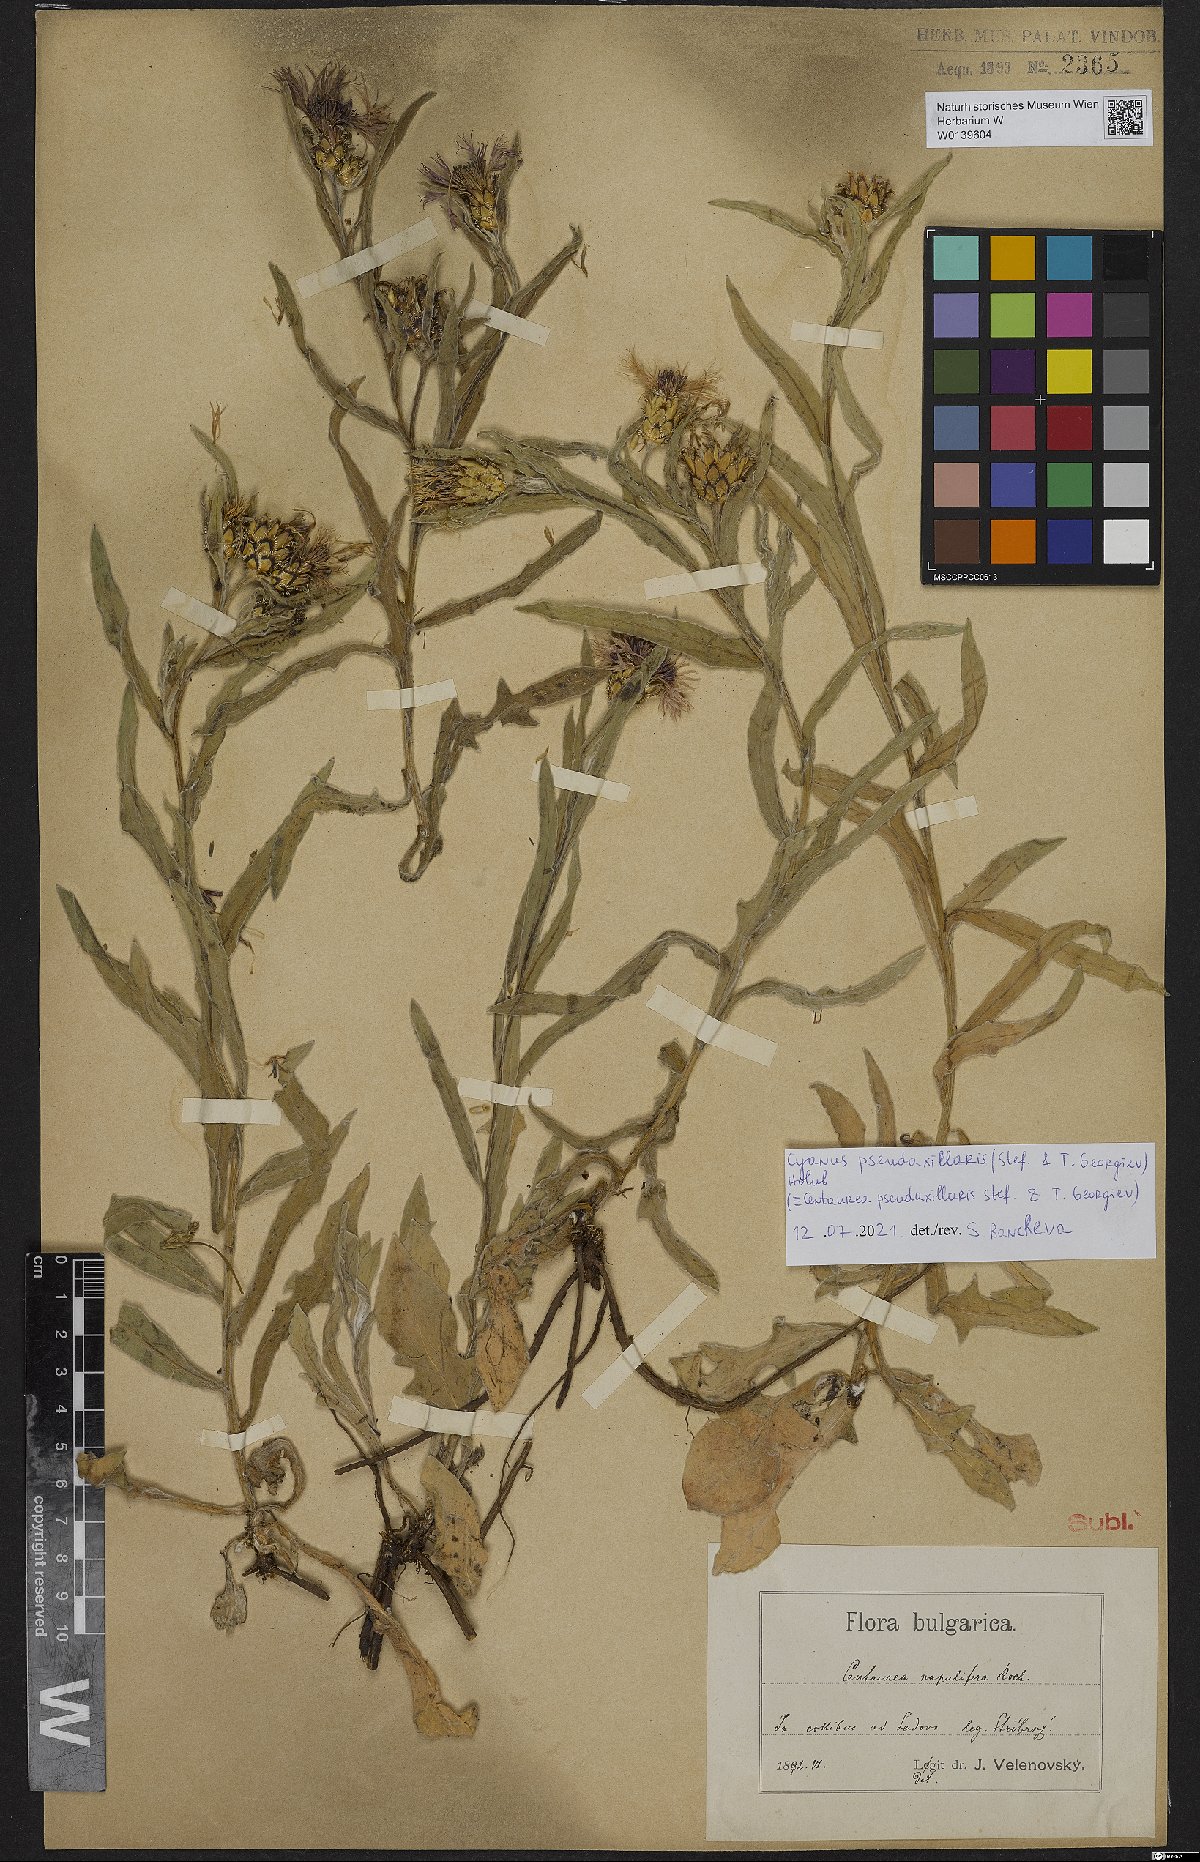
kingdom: Plantae
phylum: Tracheophyta
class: Magnoliopsida
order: Asterales
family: Asteraceae
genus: Centaurea
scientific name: Centaurea pseudoaxillaris
